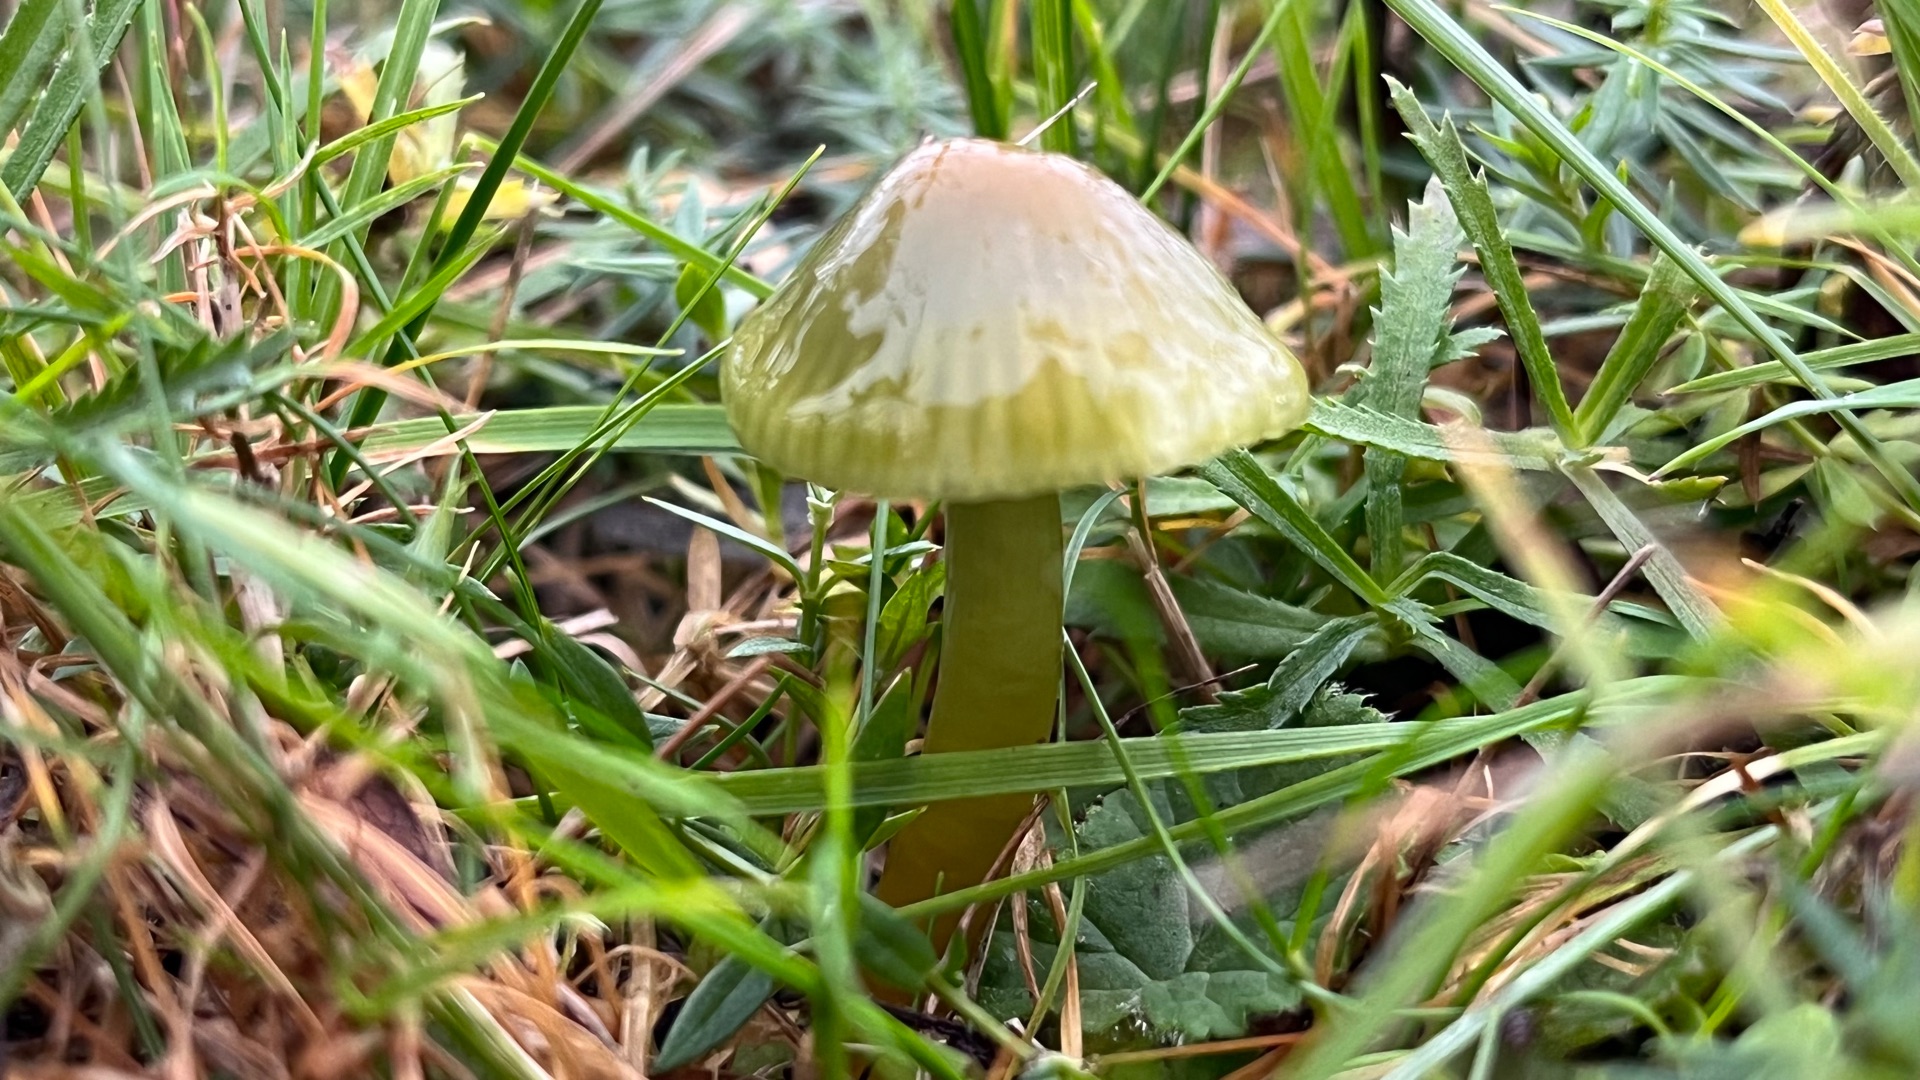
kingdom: Fungi
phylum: Basidiomycota
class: Agaricomycetes
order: Agaricales
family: Hygrophoraceae
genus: Gliophorus
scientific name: Gliophorus psittacinus
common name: Papegøje-vokshat
